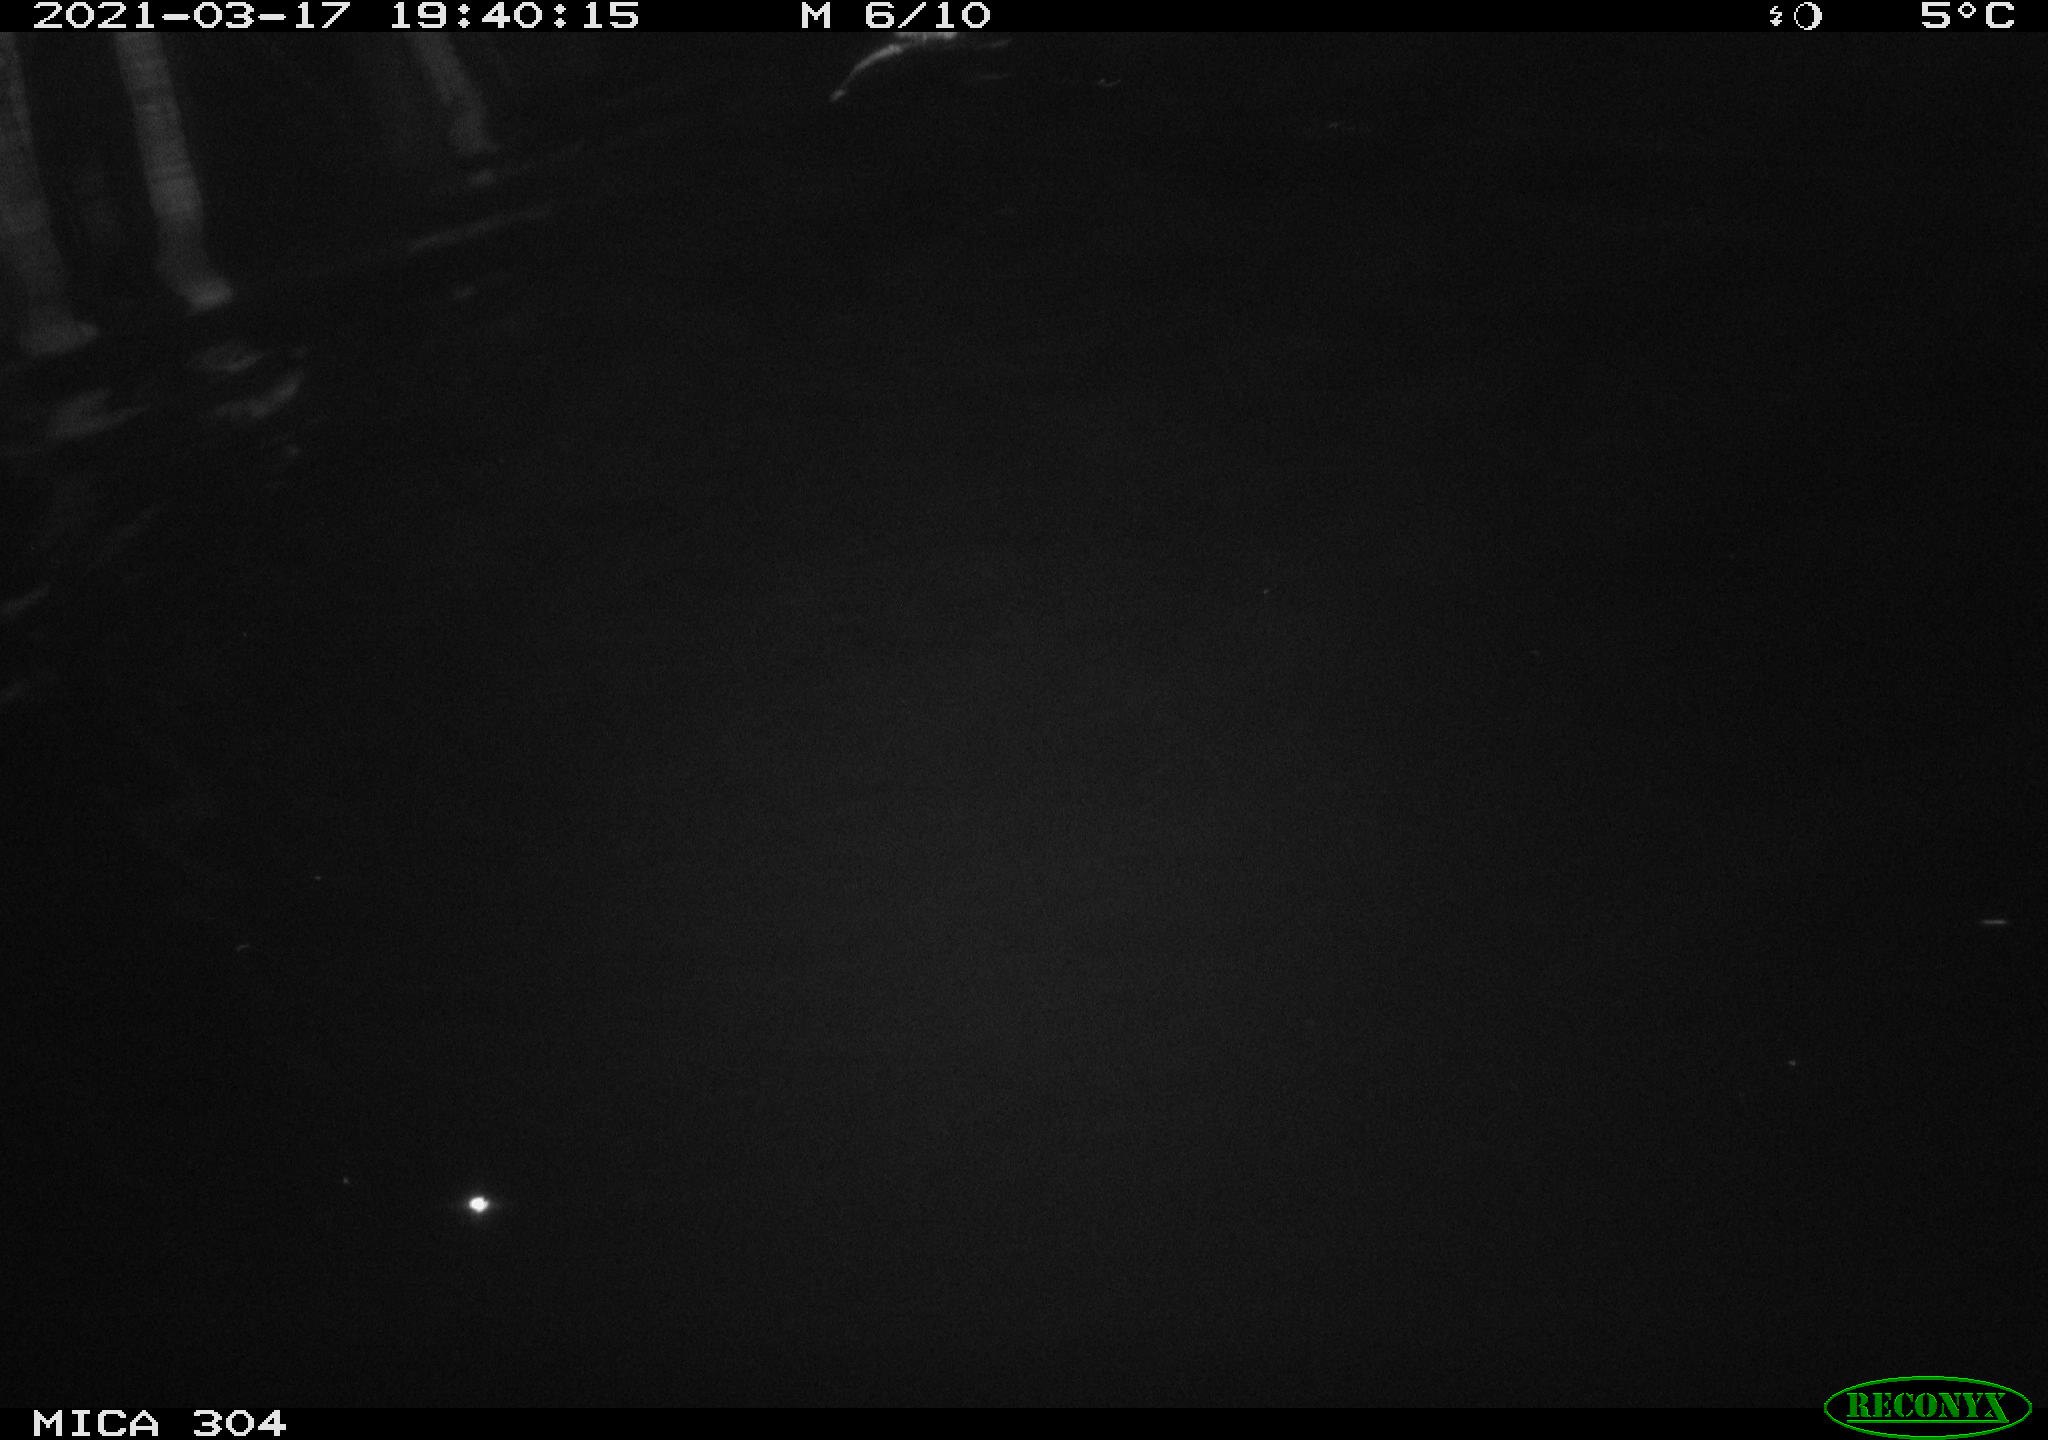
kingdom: Animalia
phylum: Chordata
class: Mammalia
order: Rodentia
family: Cricetidae
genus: Ondatra
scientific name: Ondatra zibethicus
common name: Muskrat
